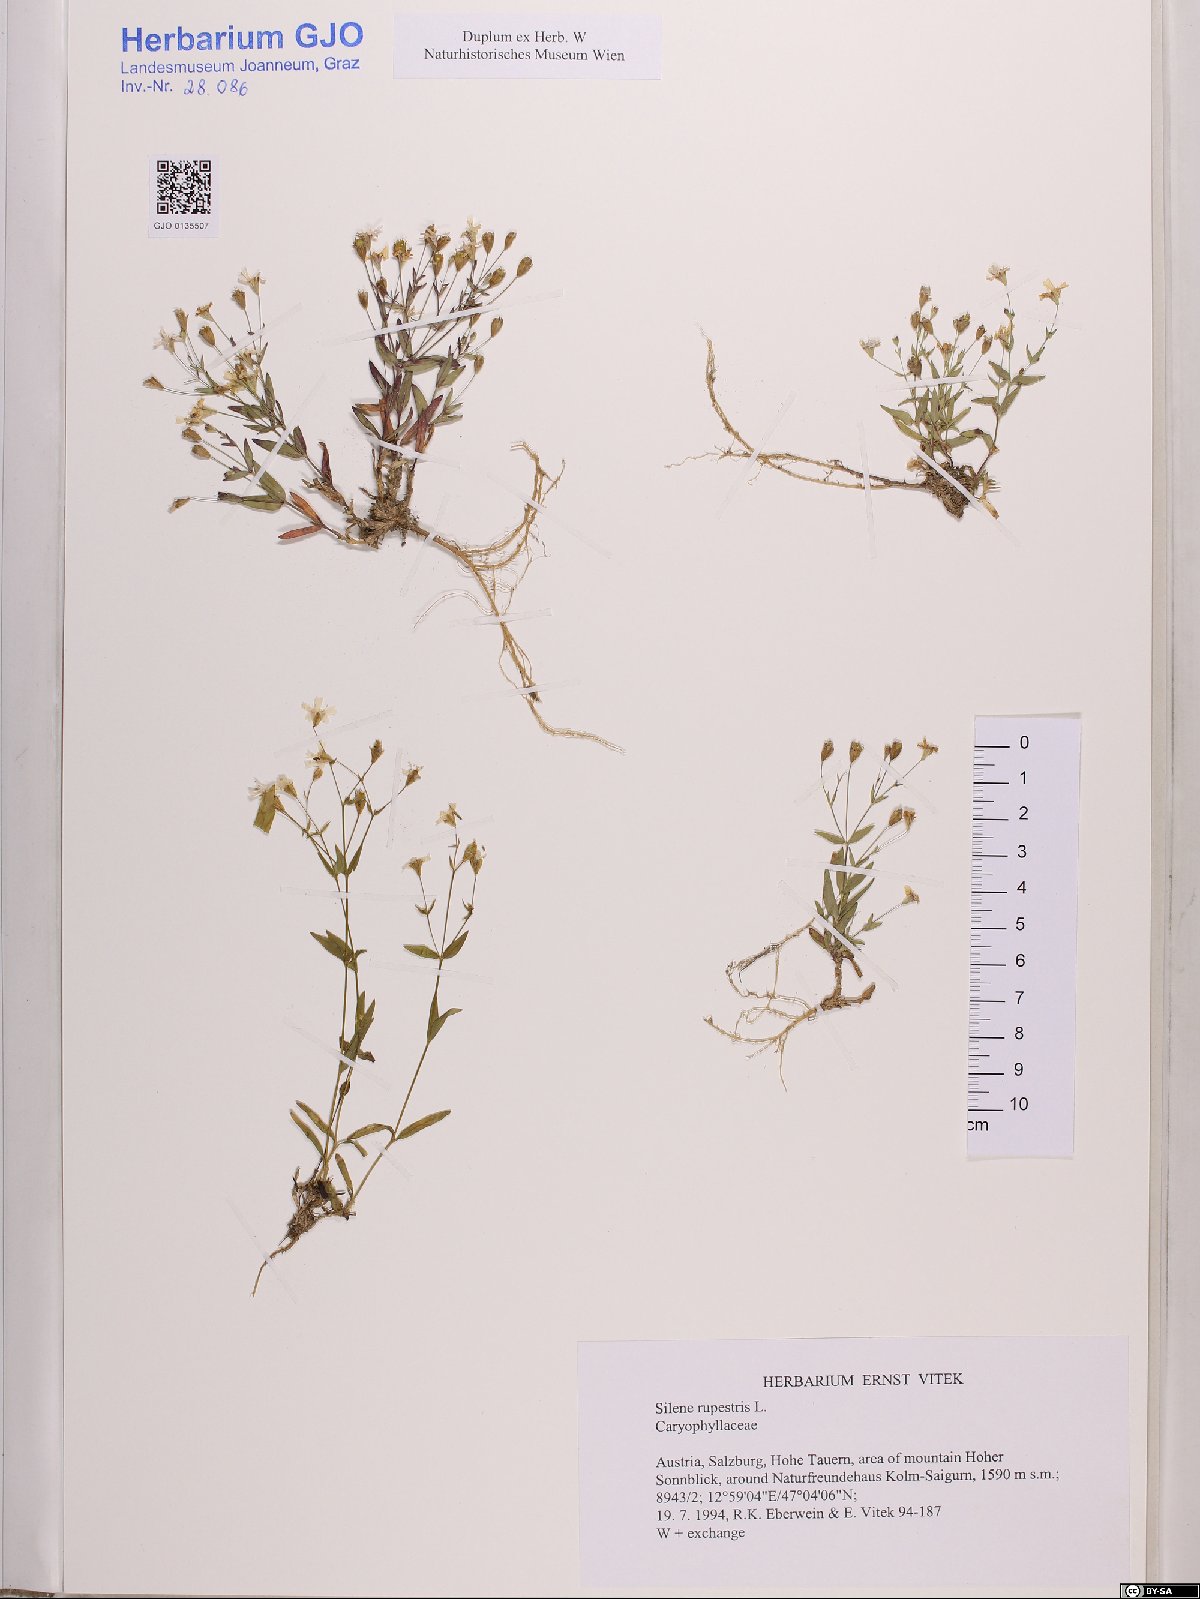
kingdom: Plantae
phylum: Tracheophyta
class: Magnoliopsida
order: Caryophyllales
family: Caryophyllaceae
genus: Atocion
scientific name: Atocion rupestre
